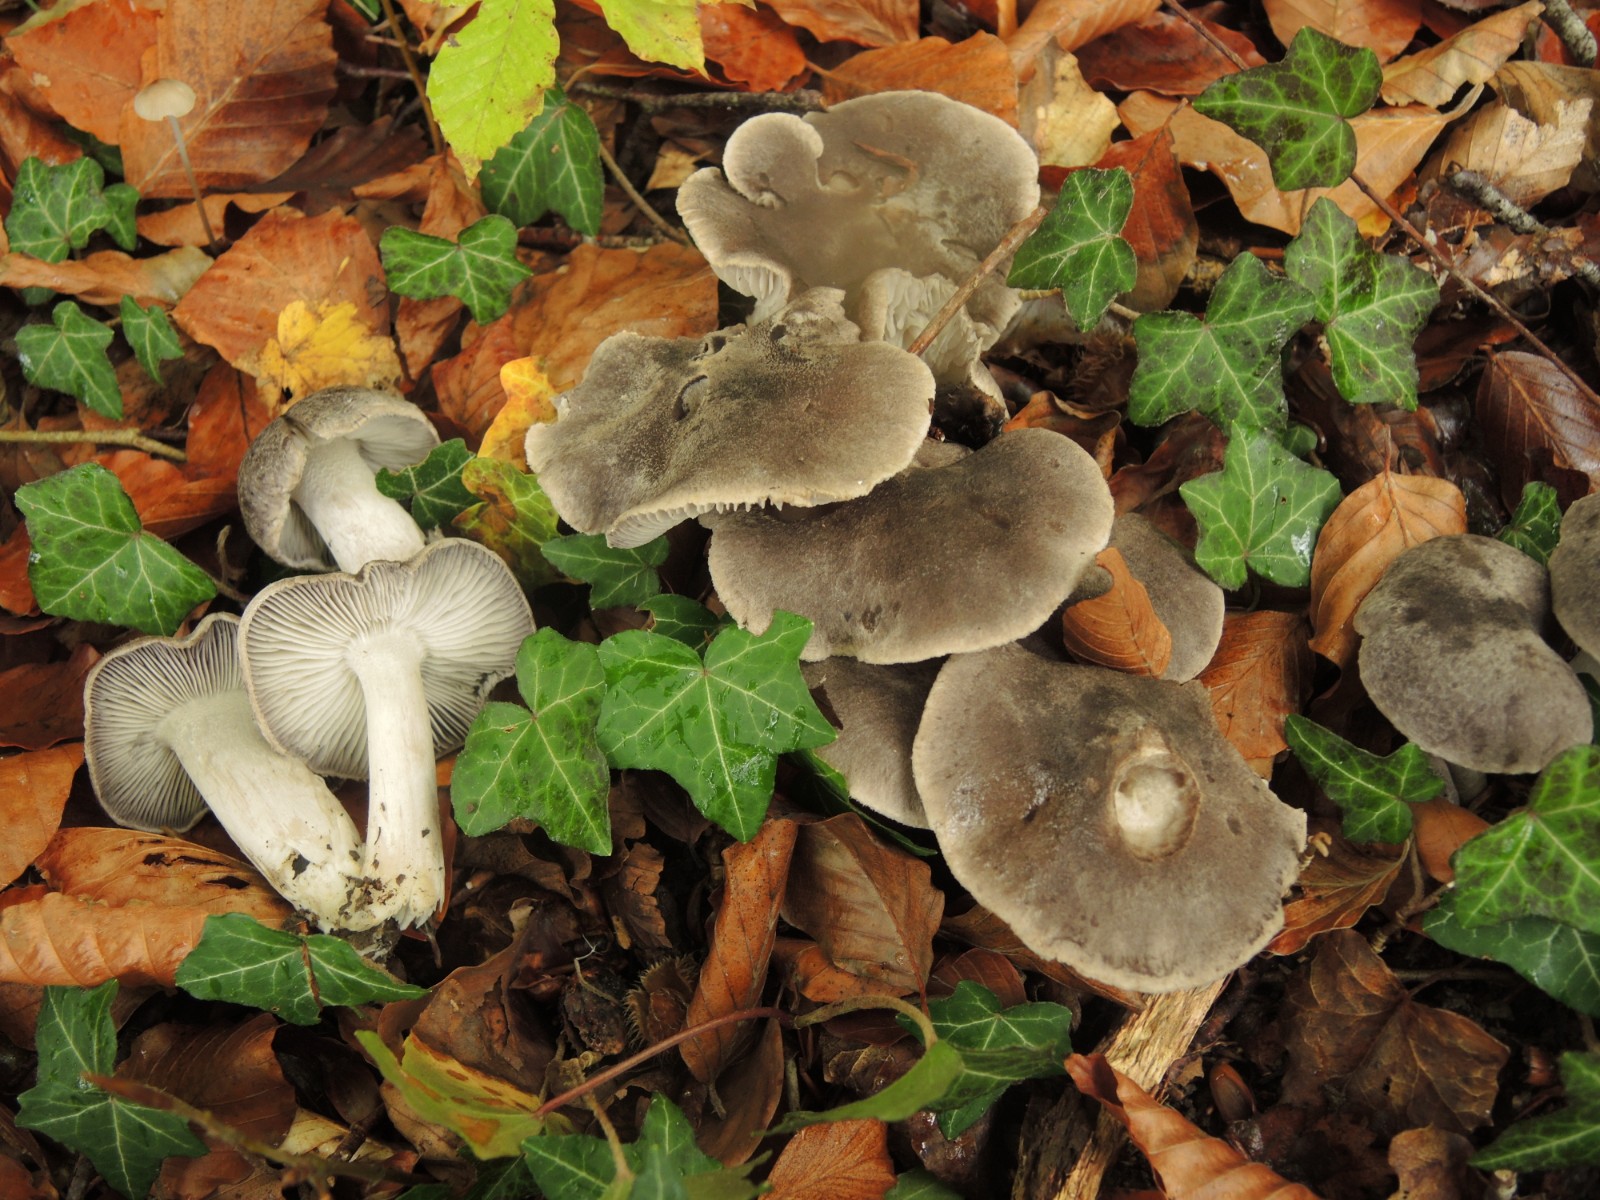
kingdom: Fungi
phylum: Basidiomycota
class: Agaricomycetes
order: Agaricales
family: Tricholomataceae
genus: Tricholoma
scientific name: Tricholoma terreum
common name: jordfarvet ridderhat
